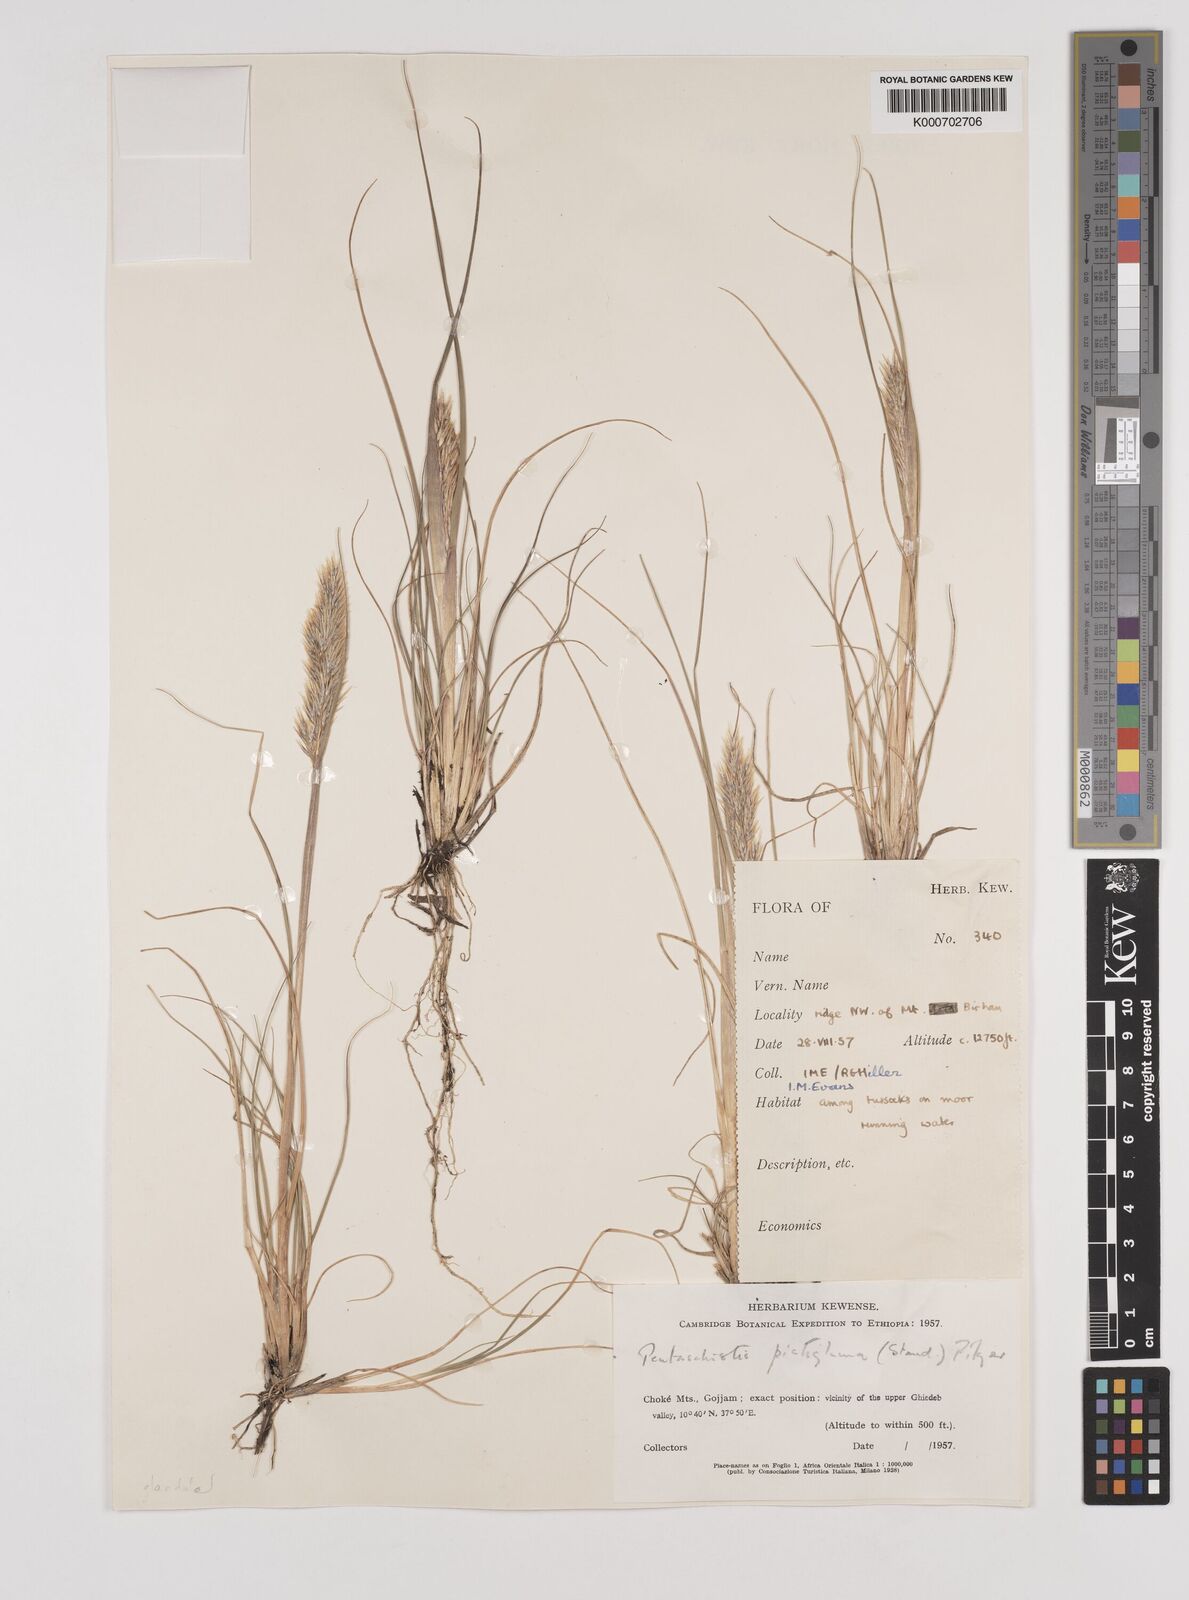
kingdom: Plantae
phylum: Tracheophyta
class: Liliopsida
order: Poales
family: Poaceae
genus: Pentameris
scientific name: Pentameris pictigluma
